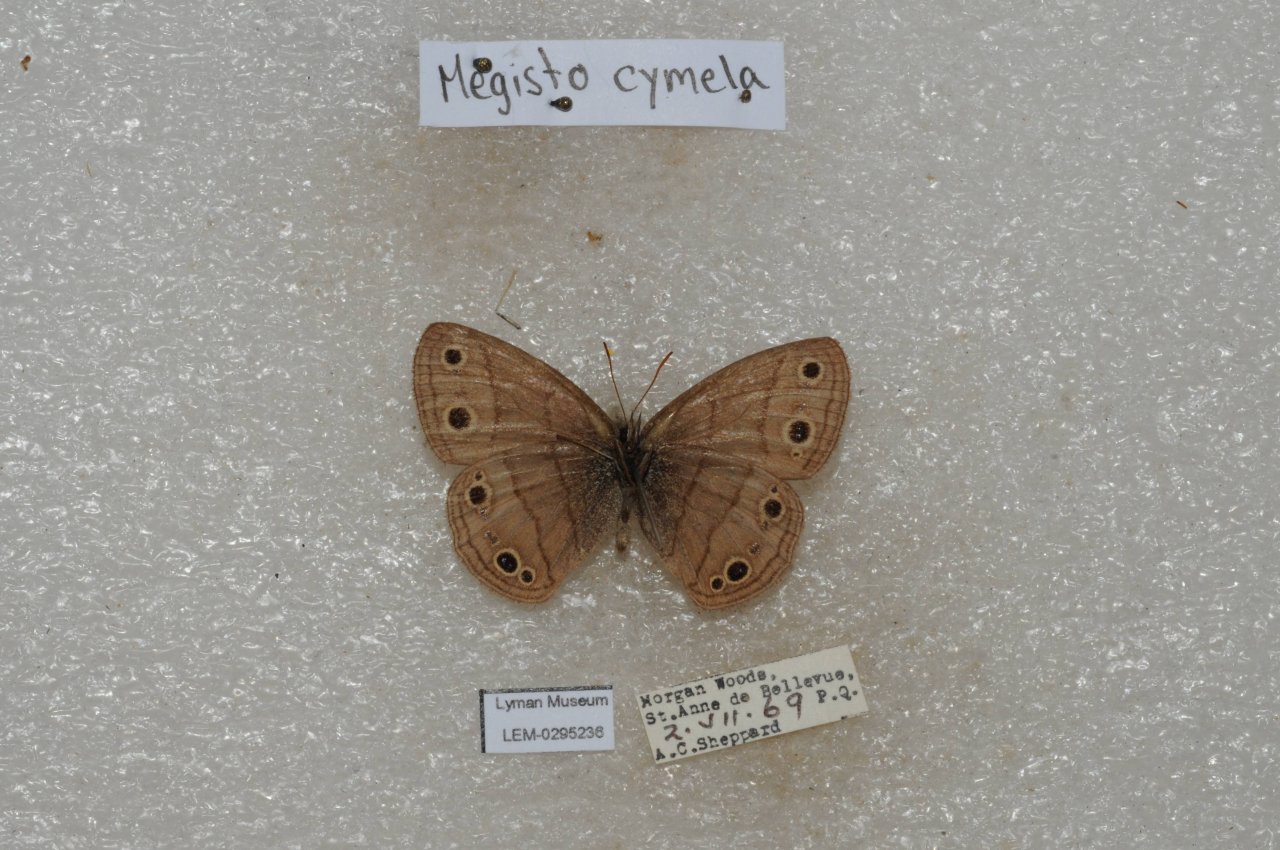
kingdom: Animalia
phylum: Arthropoda
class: Insecta
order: Lepidoptera
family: Nymphalidae
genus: Euptychia
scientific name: Euptychia cymela
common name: Little Wood Satyr
